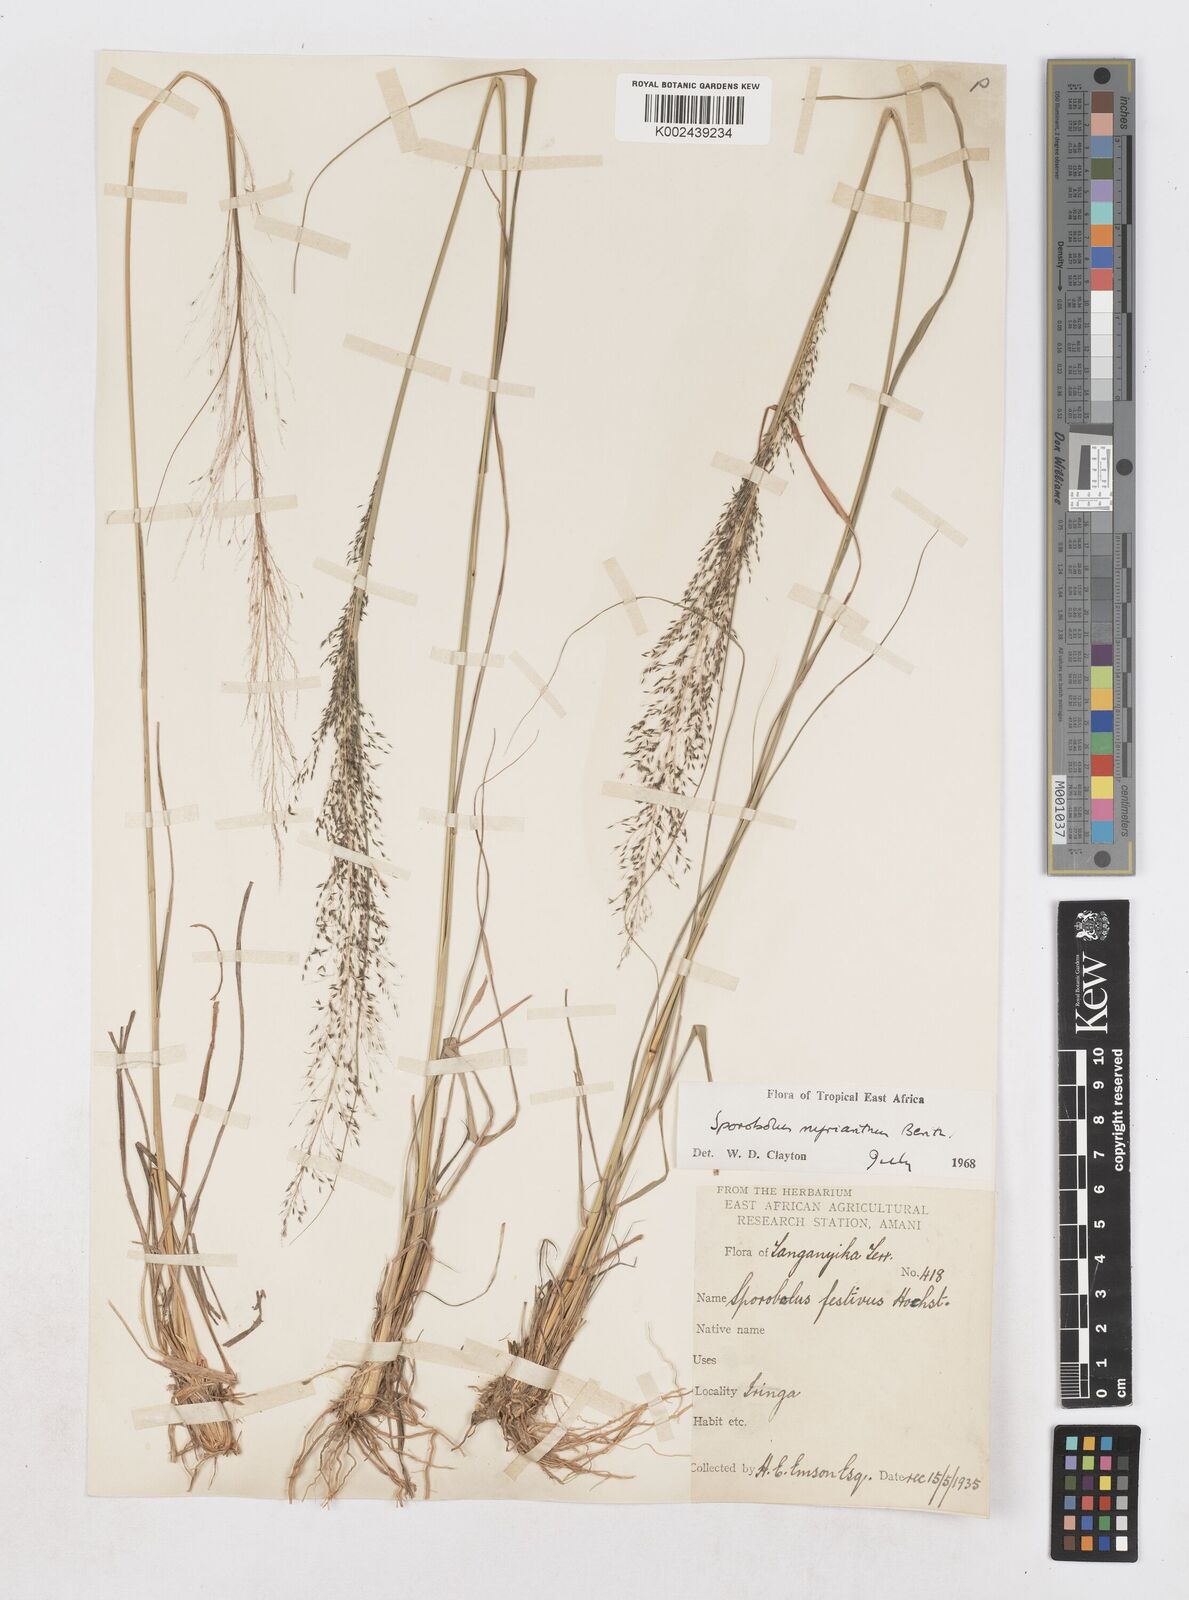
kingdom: Plantae
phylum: Tracheophyta
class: Liliopsida
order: Poales
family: Poaceae
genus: Sporobolus
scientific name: Sporobolus myrianthus
